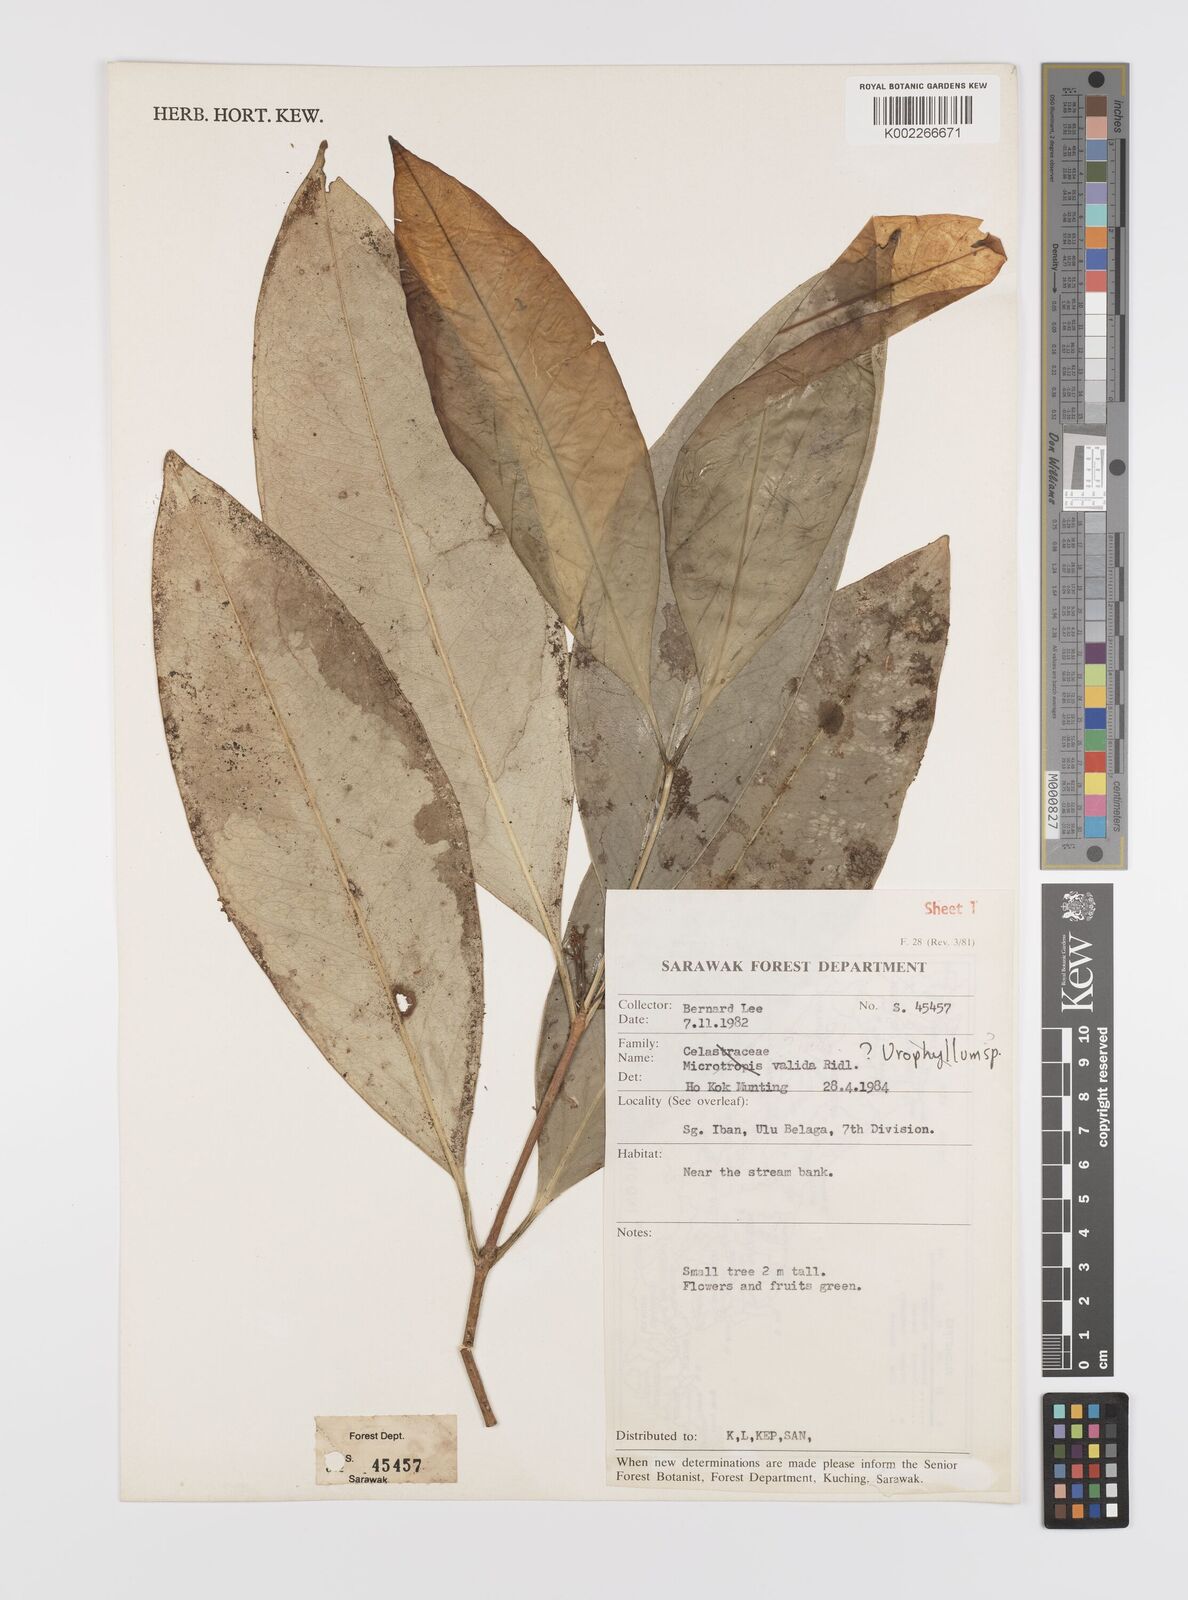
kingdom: Plantae
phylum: Tracheophyta
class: Magnoliopsida
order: Celastrales
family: Celastraceae
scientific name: Celastraceae
